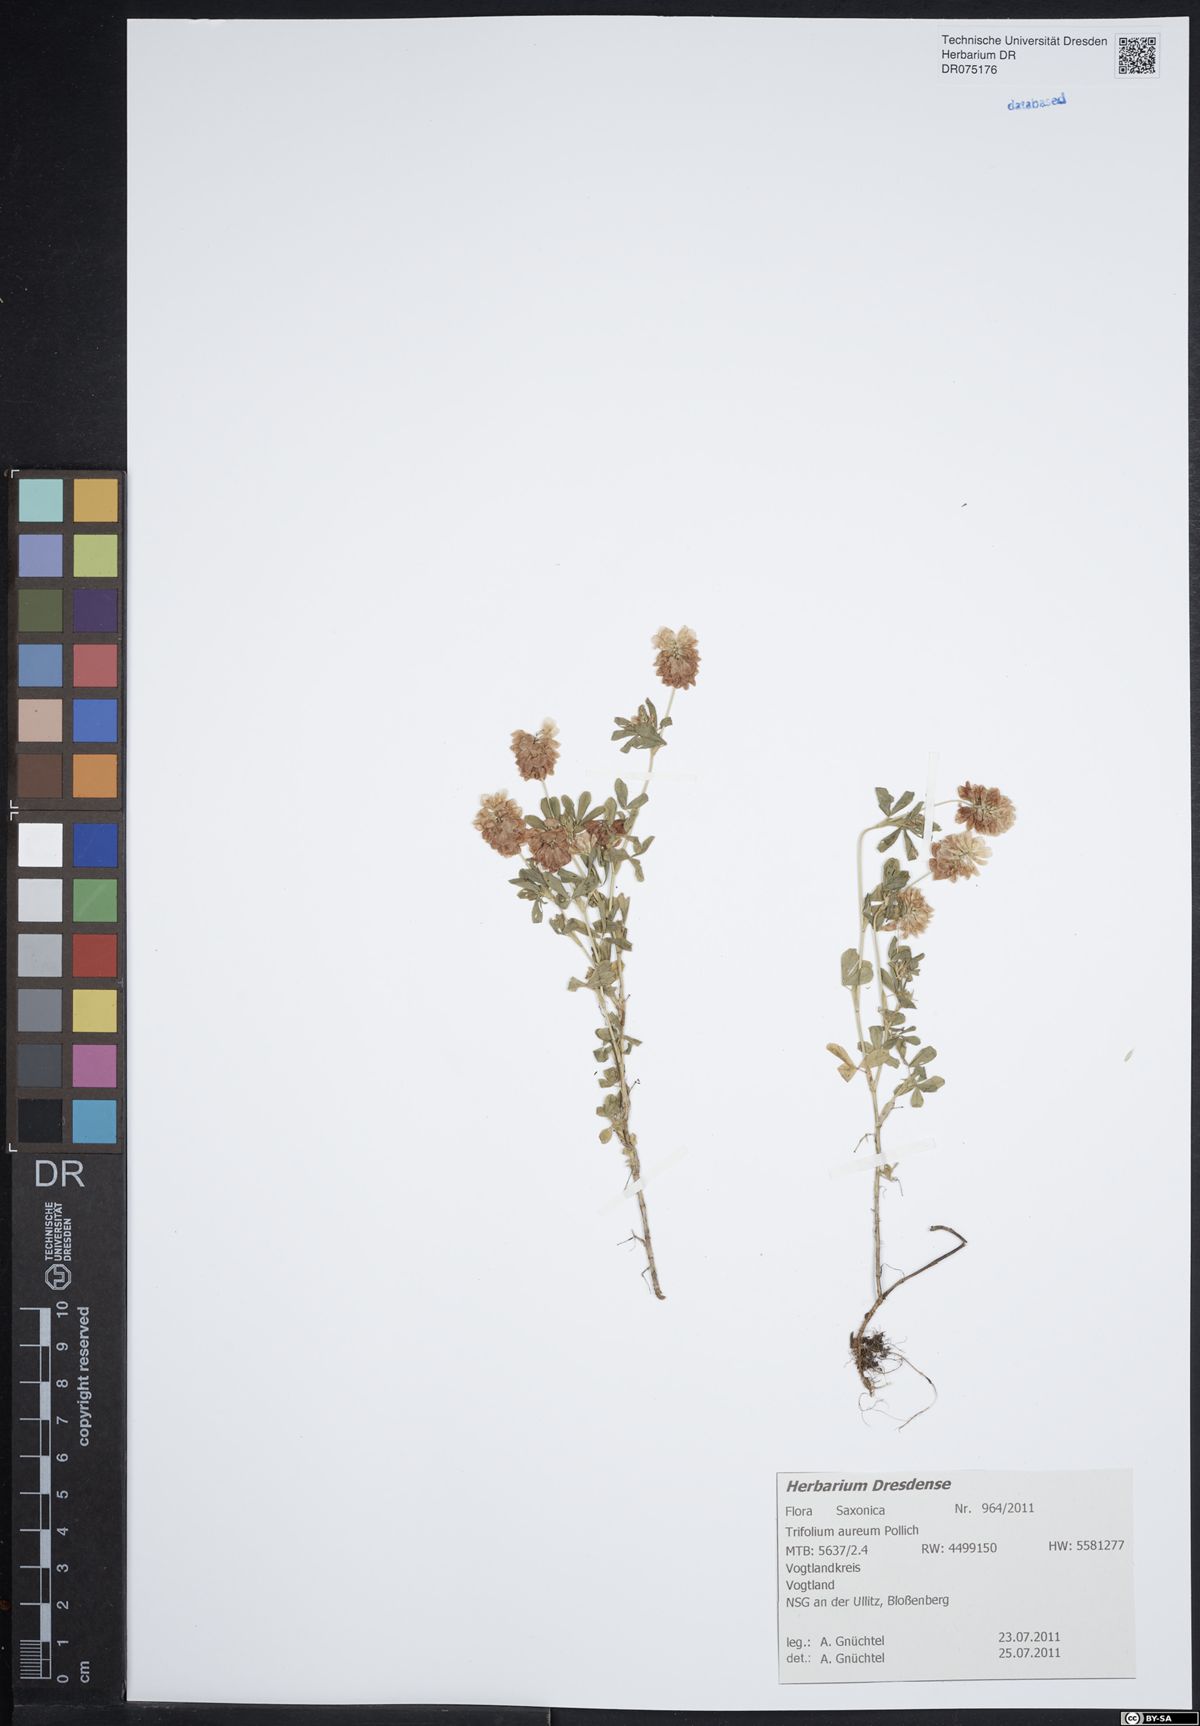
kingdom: Plantae
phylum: Tracheophyta
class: Magnoliopsida
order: Fabales
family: Fabaceae
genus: Trifolium
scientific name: Trifolium aureum
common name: Golden clover
